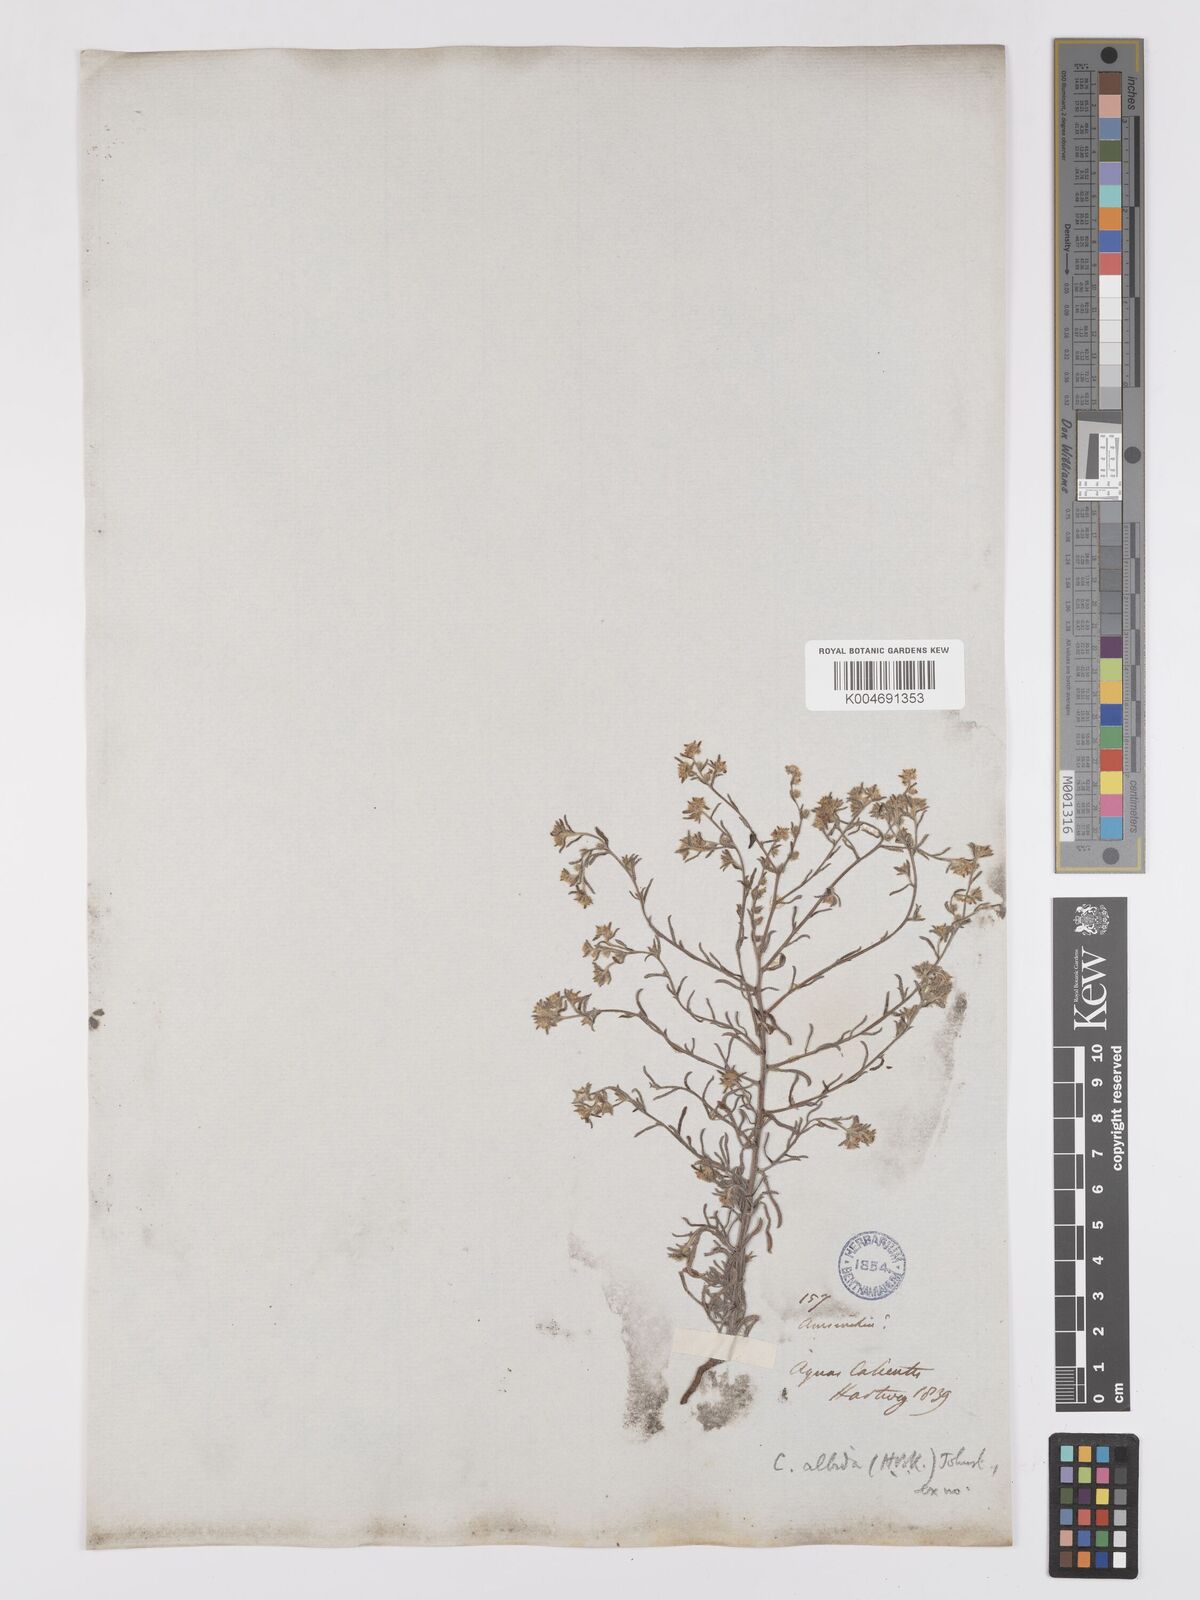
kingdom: Plantae
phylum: Tracheophyta
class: Magnoliopsida
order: Boraginales
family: Boraginaceae
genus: Johnstonella
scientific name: Johnstonella albida
